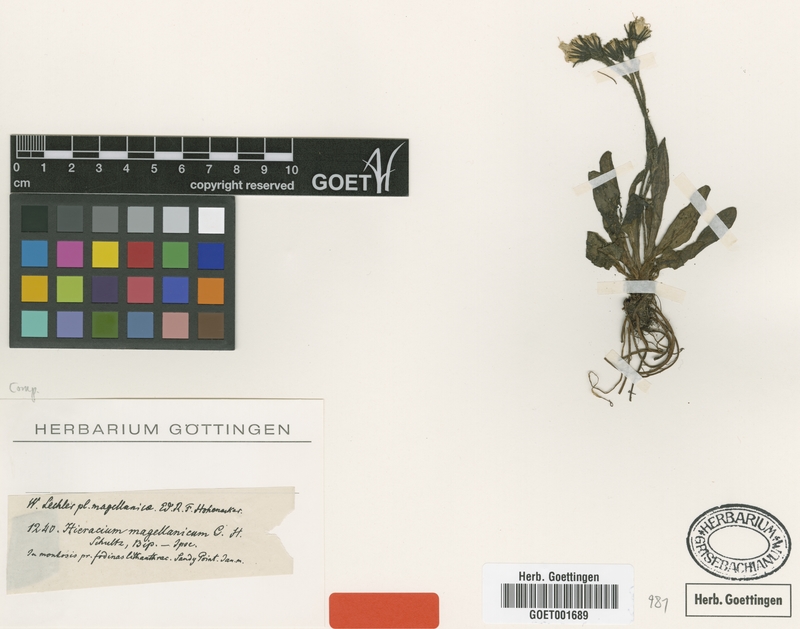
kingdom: Plantae
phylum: Tracheophyta
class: Magnoliopsida
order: Asterales
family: Asteraceae
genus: Hieracium
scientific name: Hieracium antarcticum
